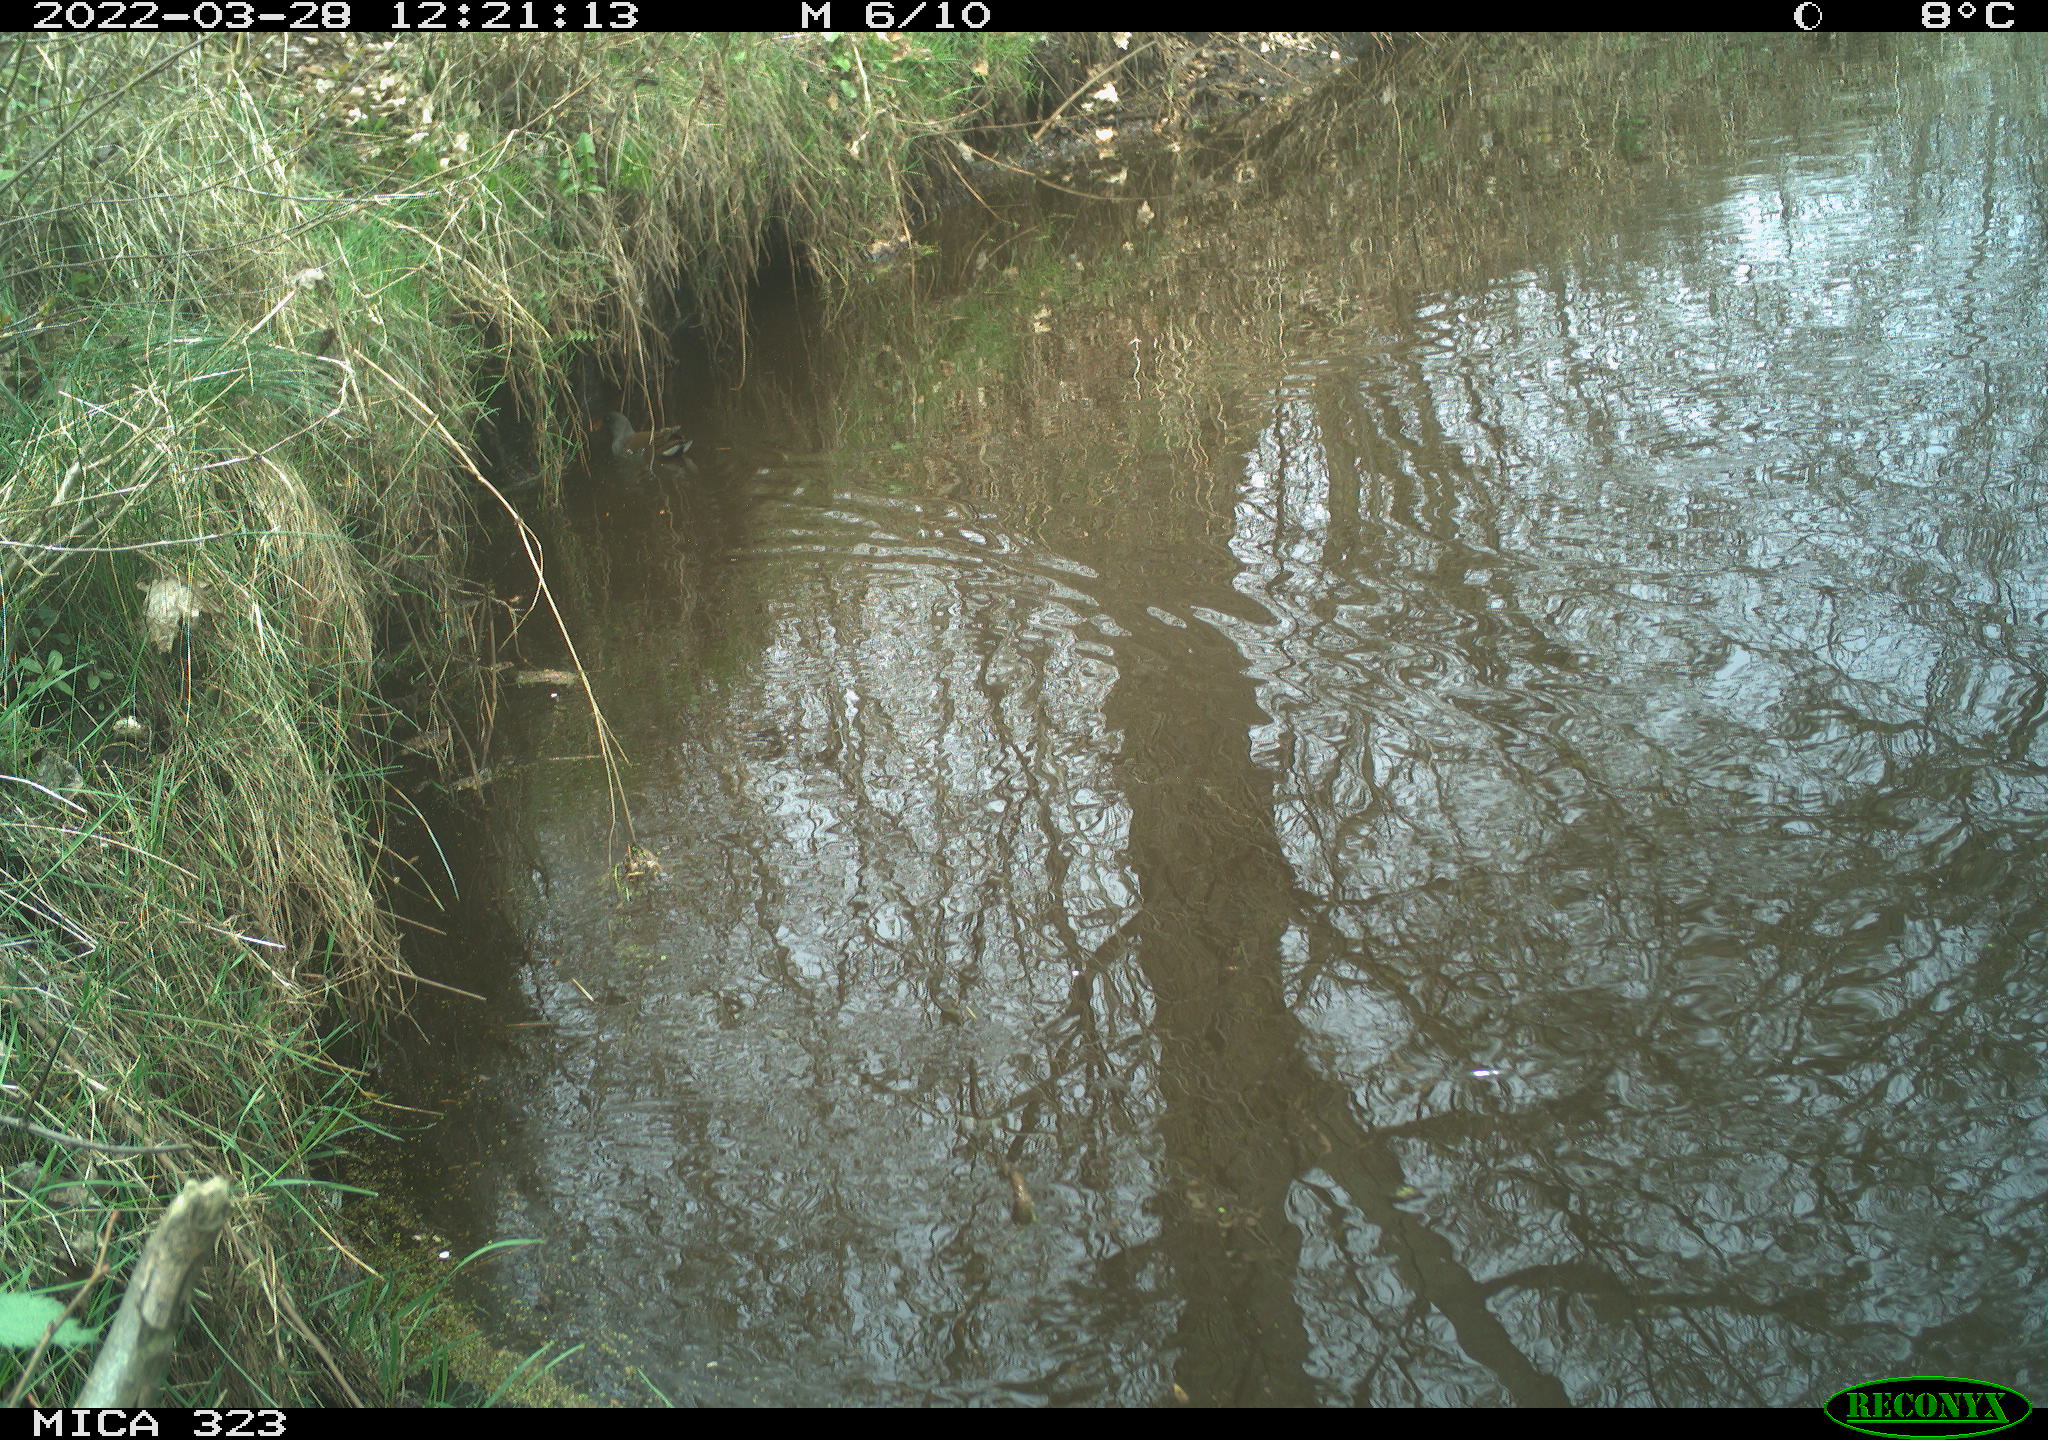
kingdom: Animalia
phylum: Chordata
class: Aves
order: Gruiformes
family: Rallidae
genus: Gallinula
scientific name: Gallinula chloropus
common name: Common moorhen
